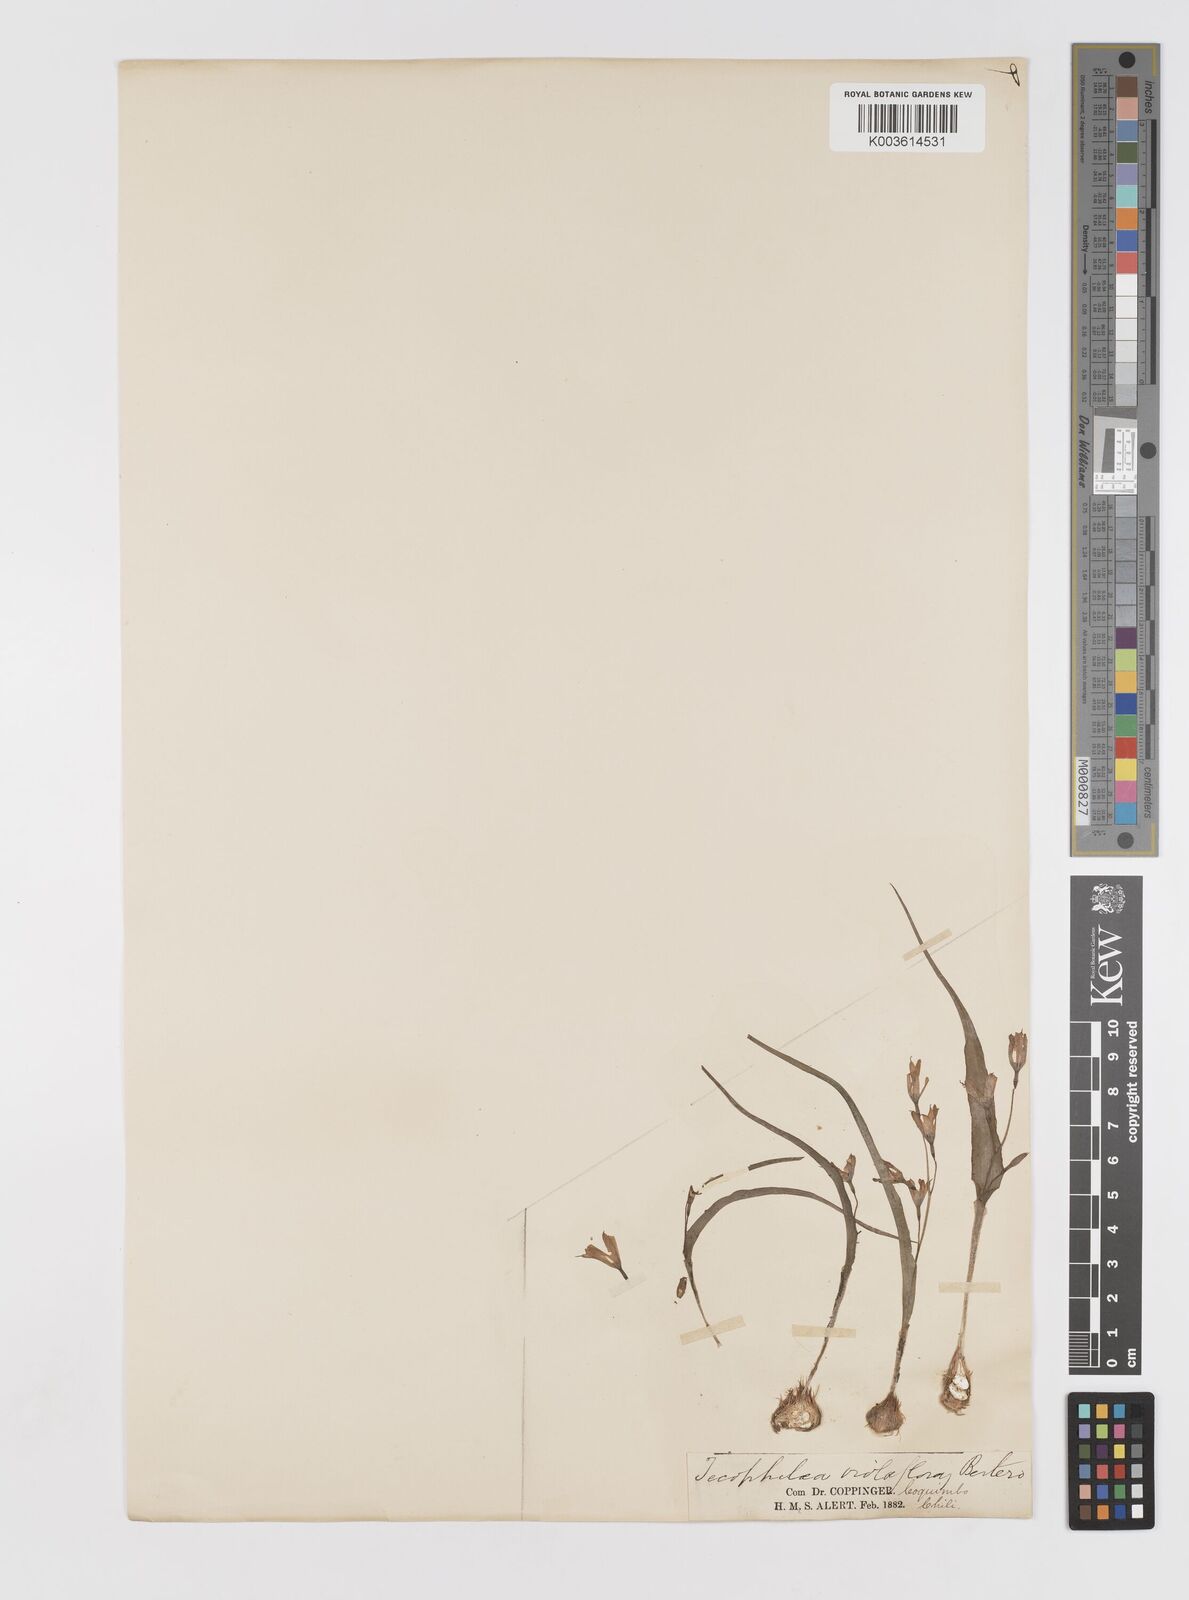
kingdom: Plantae
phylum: Tracheophyta
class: Liliopsida
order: Asparagales
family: Tecophilaeaceae
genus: Tecophilaea
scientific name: Tecophilaea violiflora
